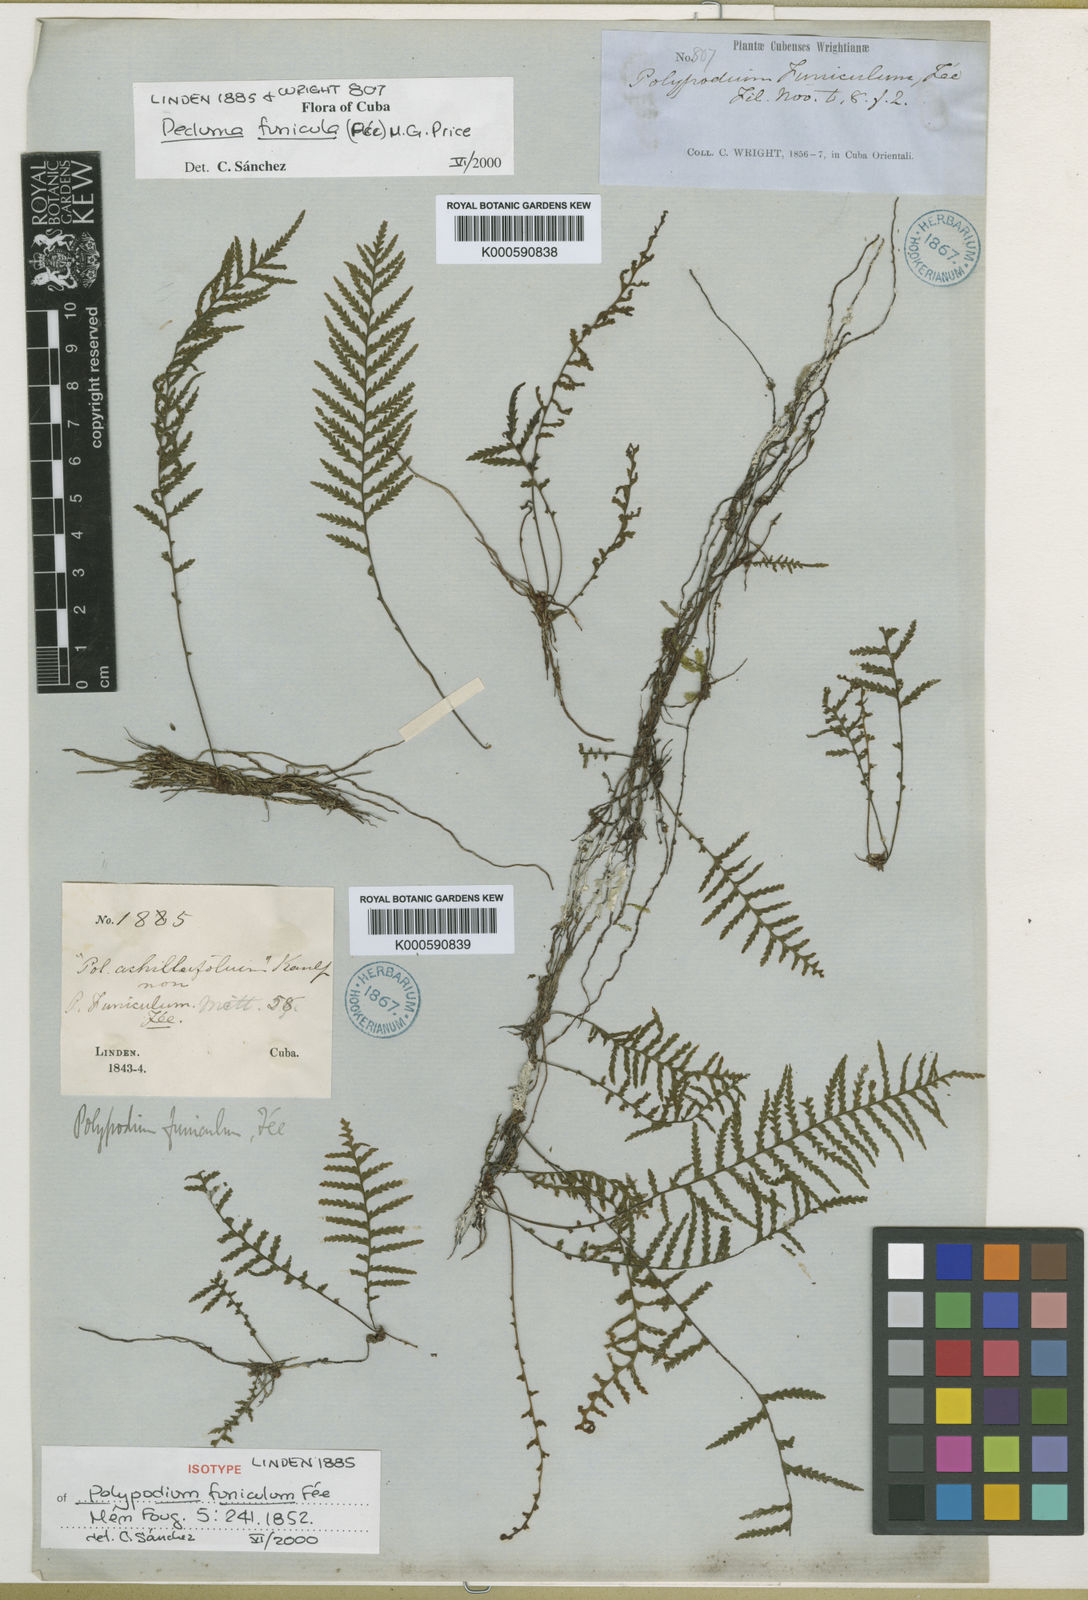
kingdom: Plantae
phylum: Tracheophyta
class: Polypodiopsida
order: Polypodiales
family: Polypodiaceae
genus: Pecluma
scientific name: Pecluma
